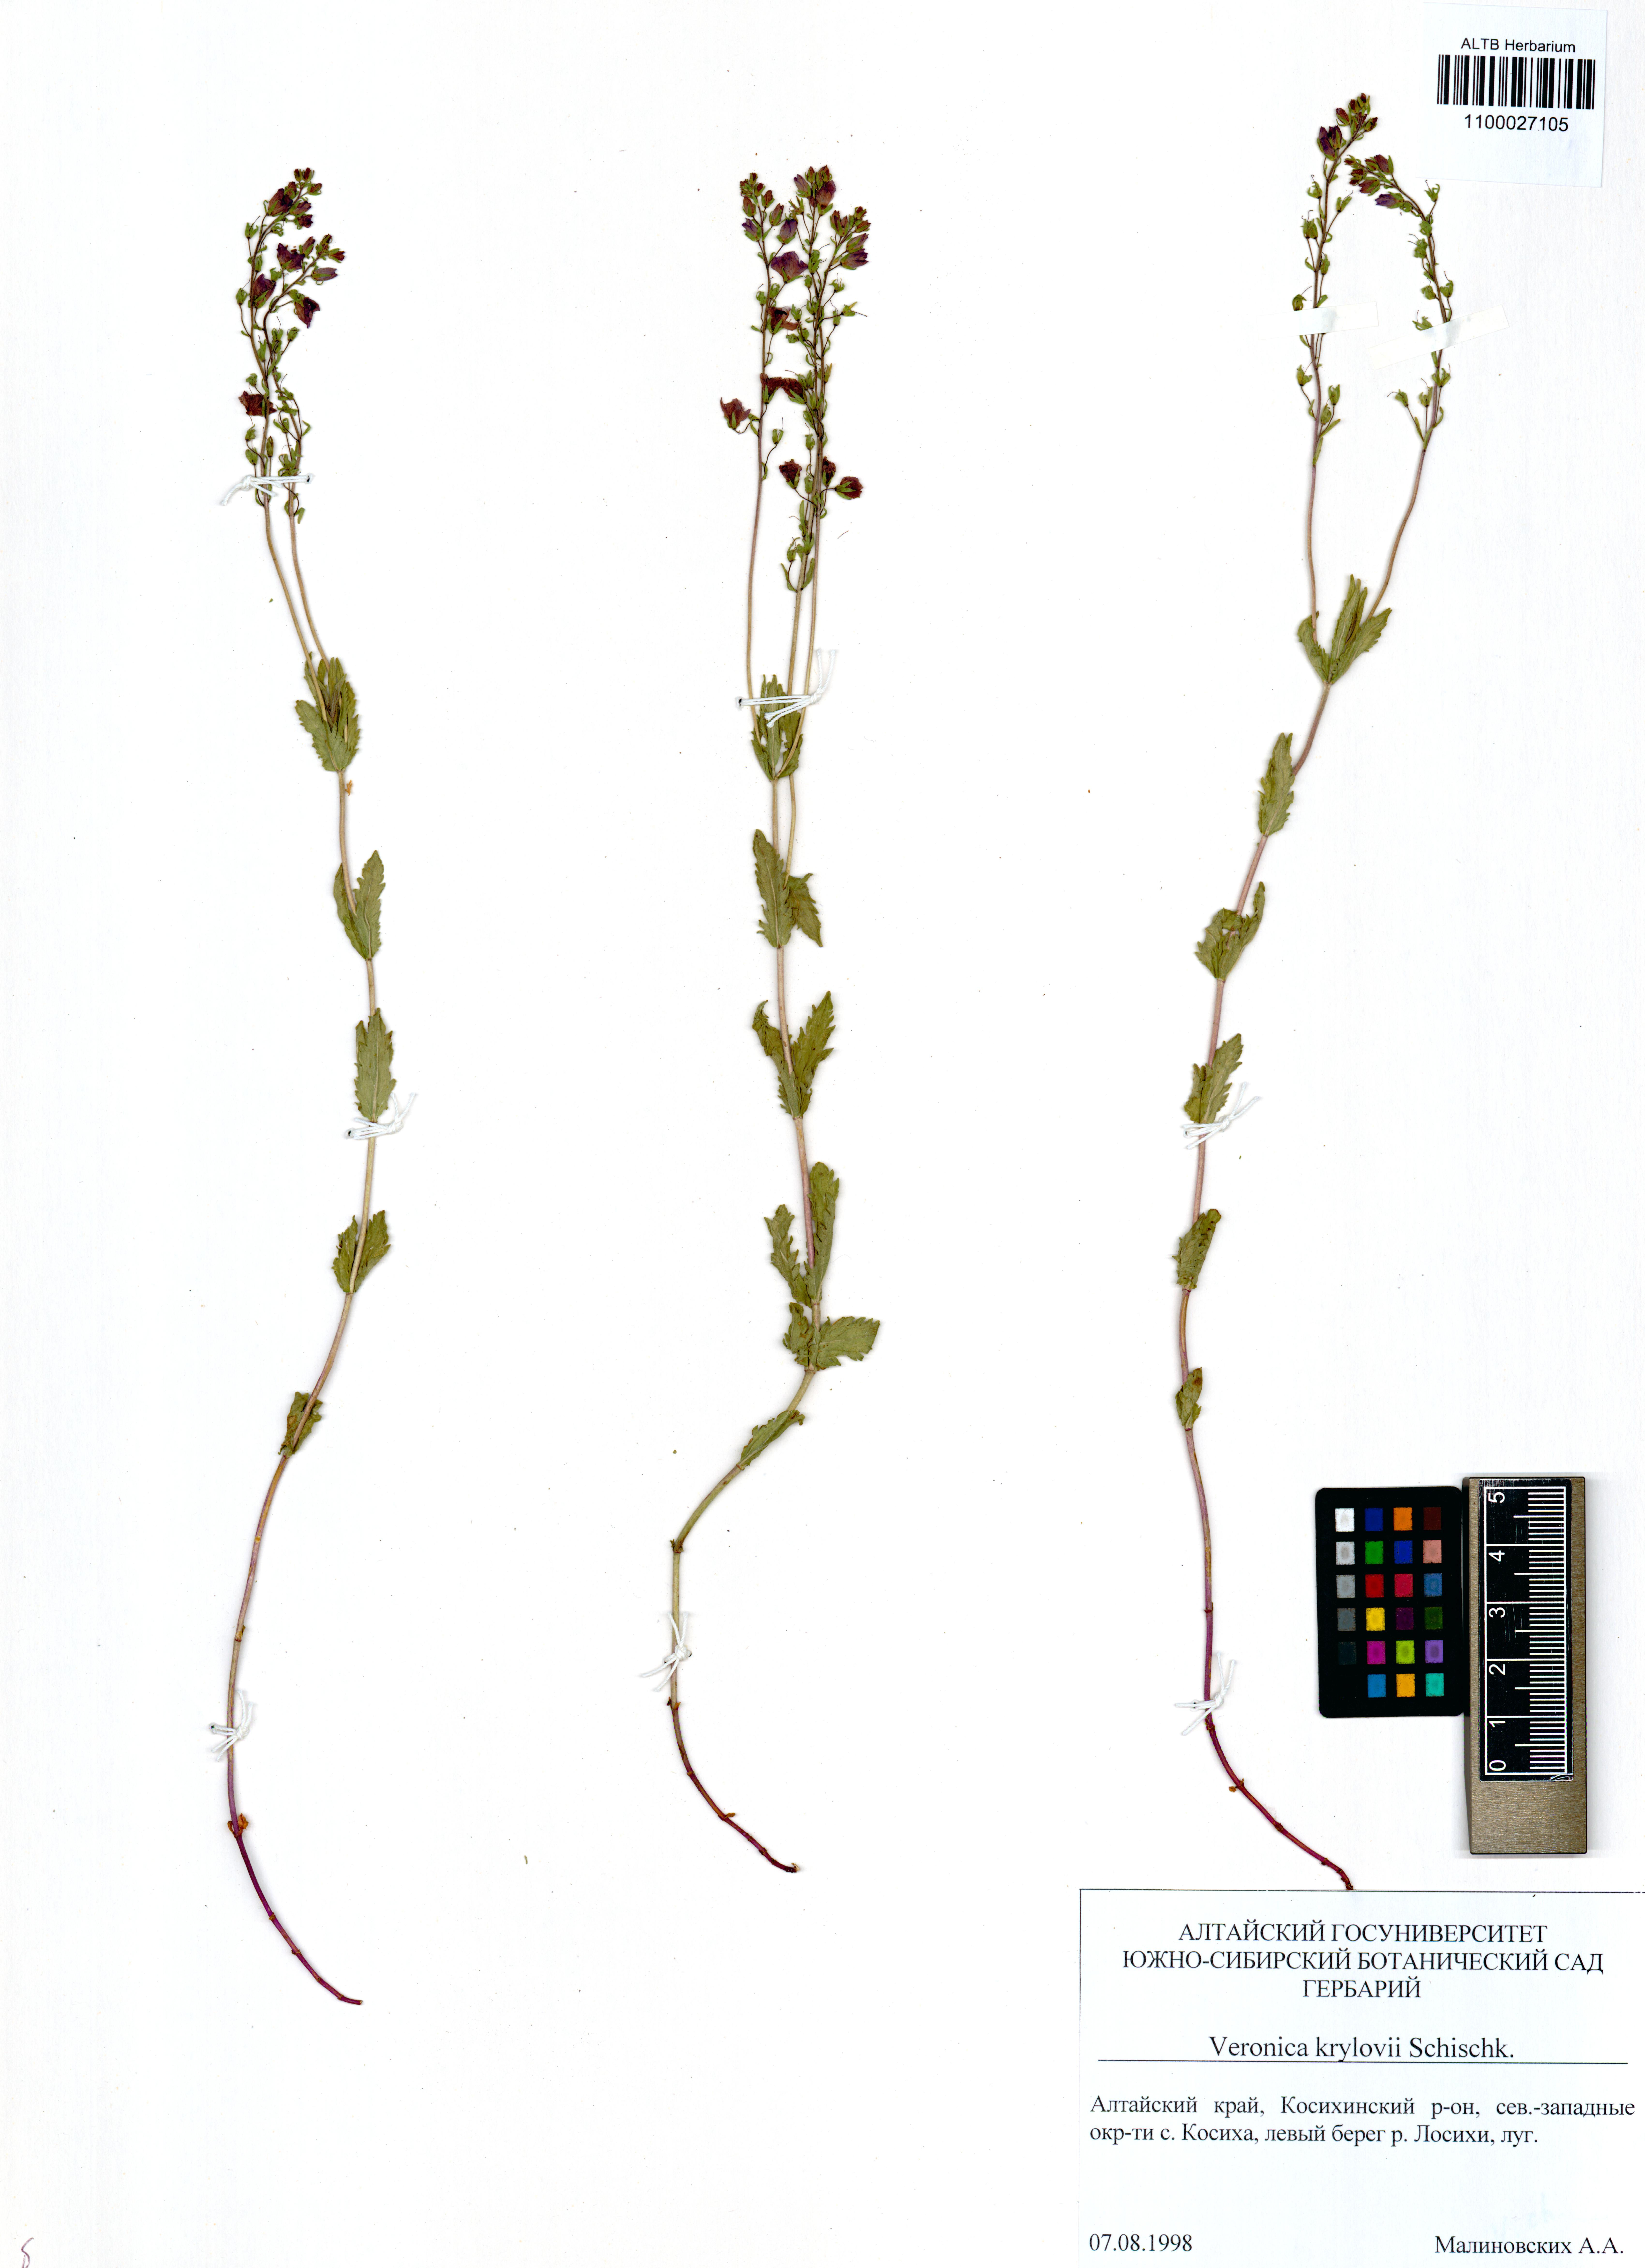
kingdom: Plantae
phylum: Tracheophyta
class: Magnoliopsida
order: Lamiales
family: Plantaginaceae
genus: Veronica
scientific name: Veronica krylovii
